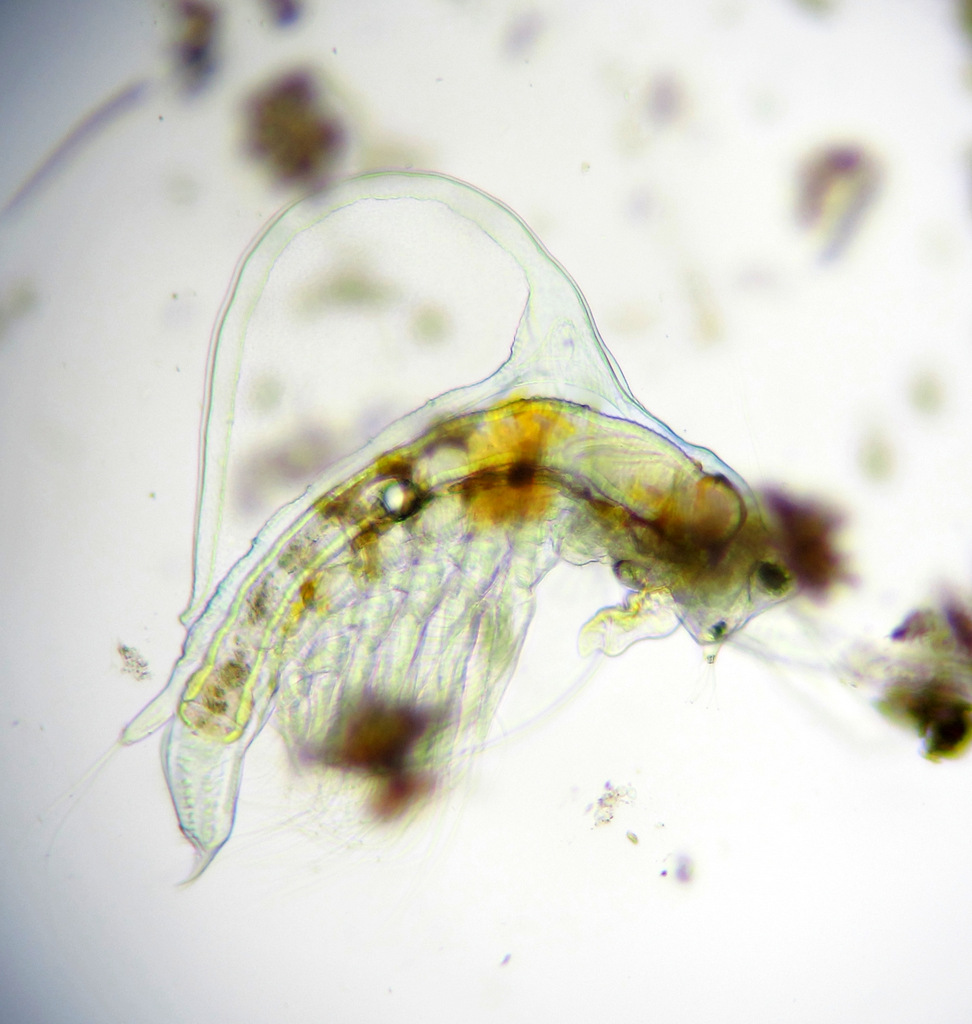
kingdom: Animalia
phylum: Arthropoda
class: Branchiopoda
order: Diplostraca
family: Holopediidae
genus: Holopedium
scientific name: Holopedium gibberum
